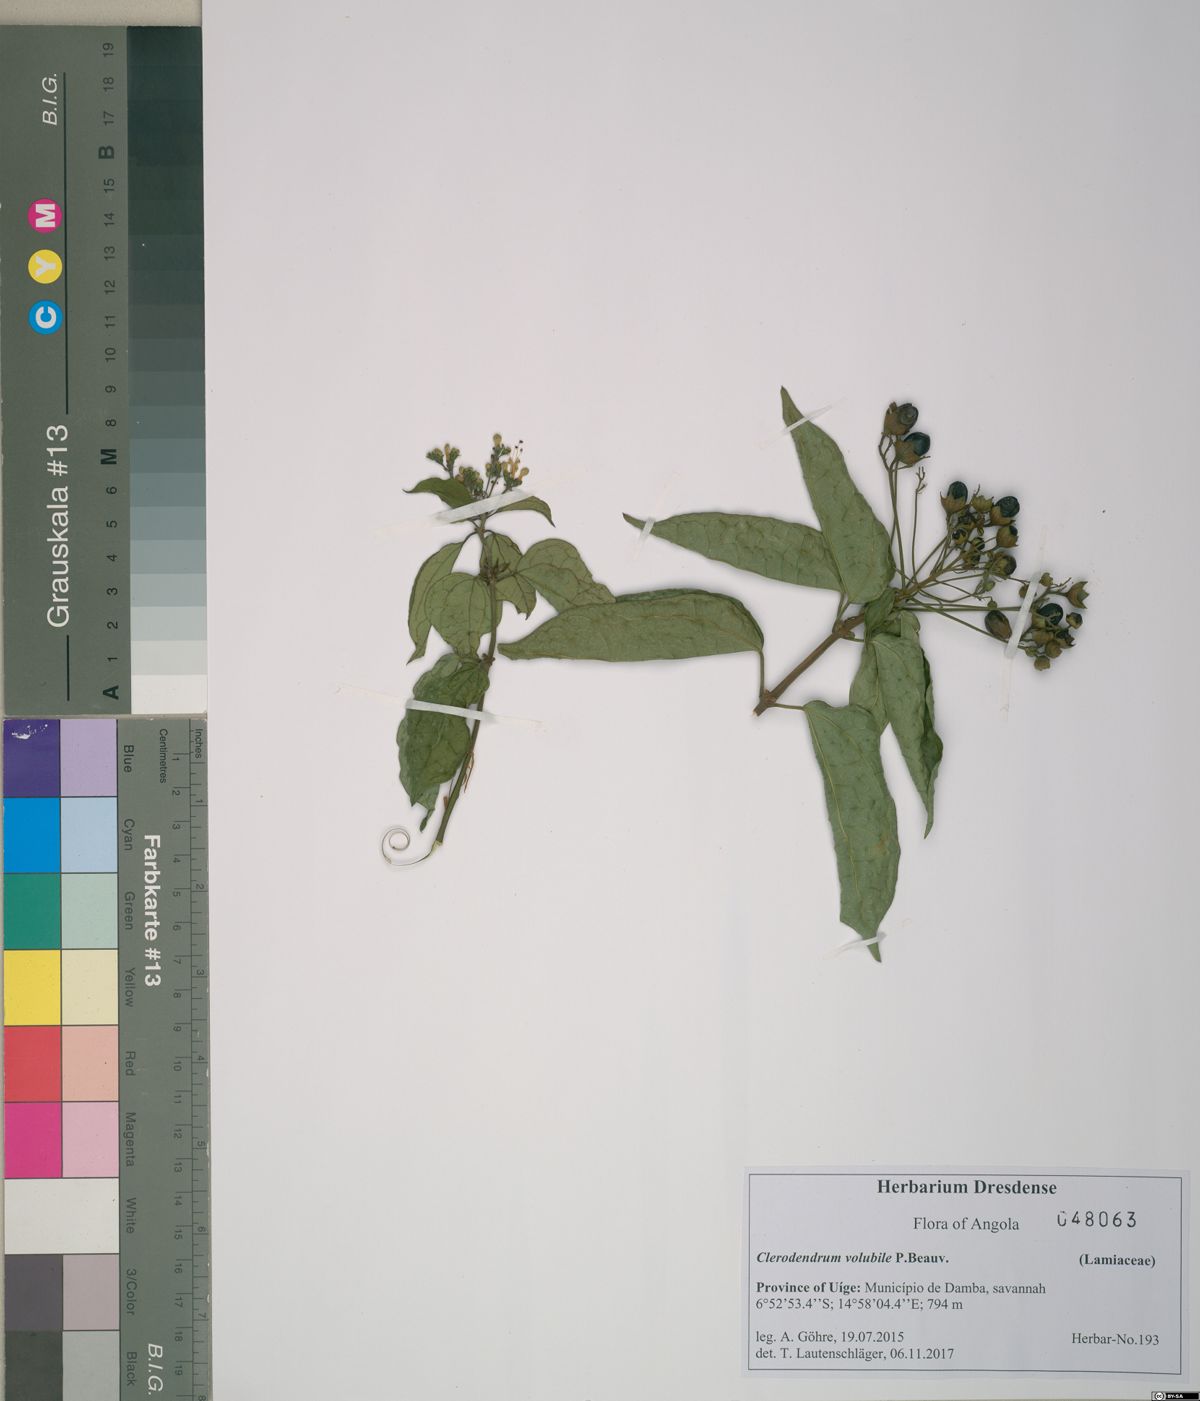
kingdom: Plantae
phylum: Tracheophyta
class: Magnoliopsida
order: Lamiales
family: Lamiaceae
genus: Clerodendrum
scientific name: Clerodendrum formicarum
